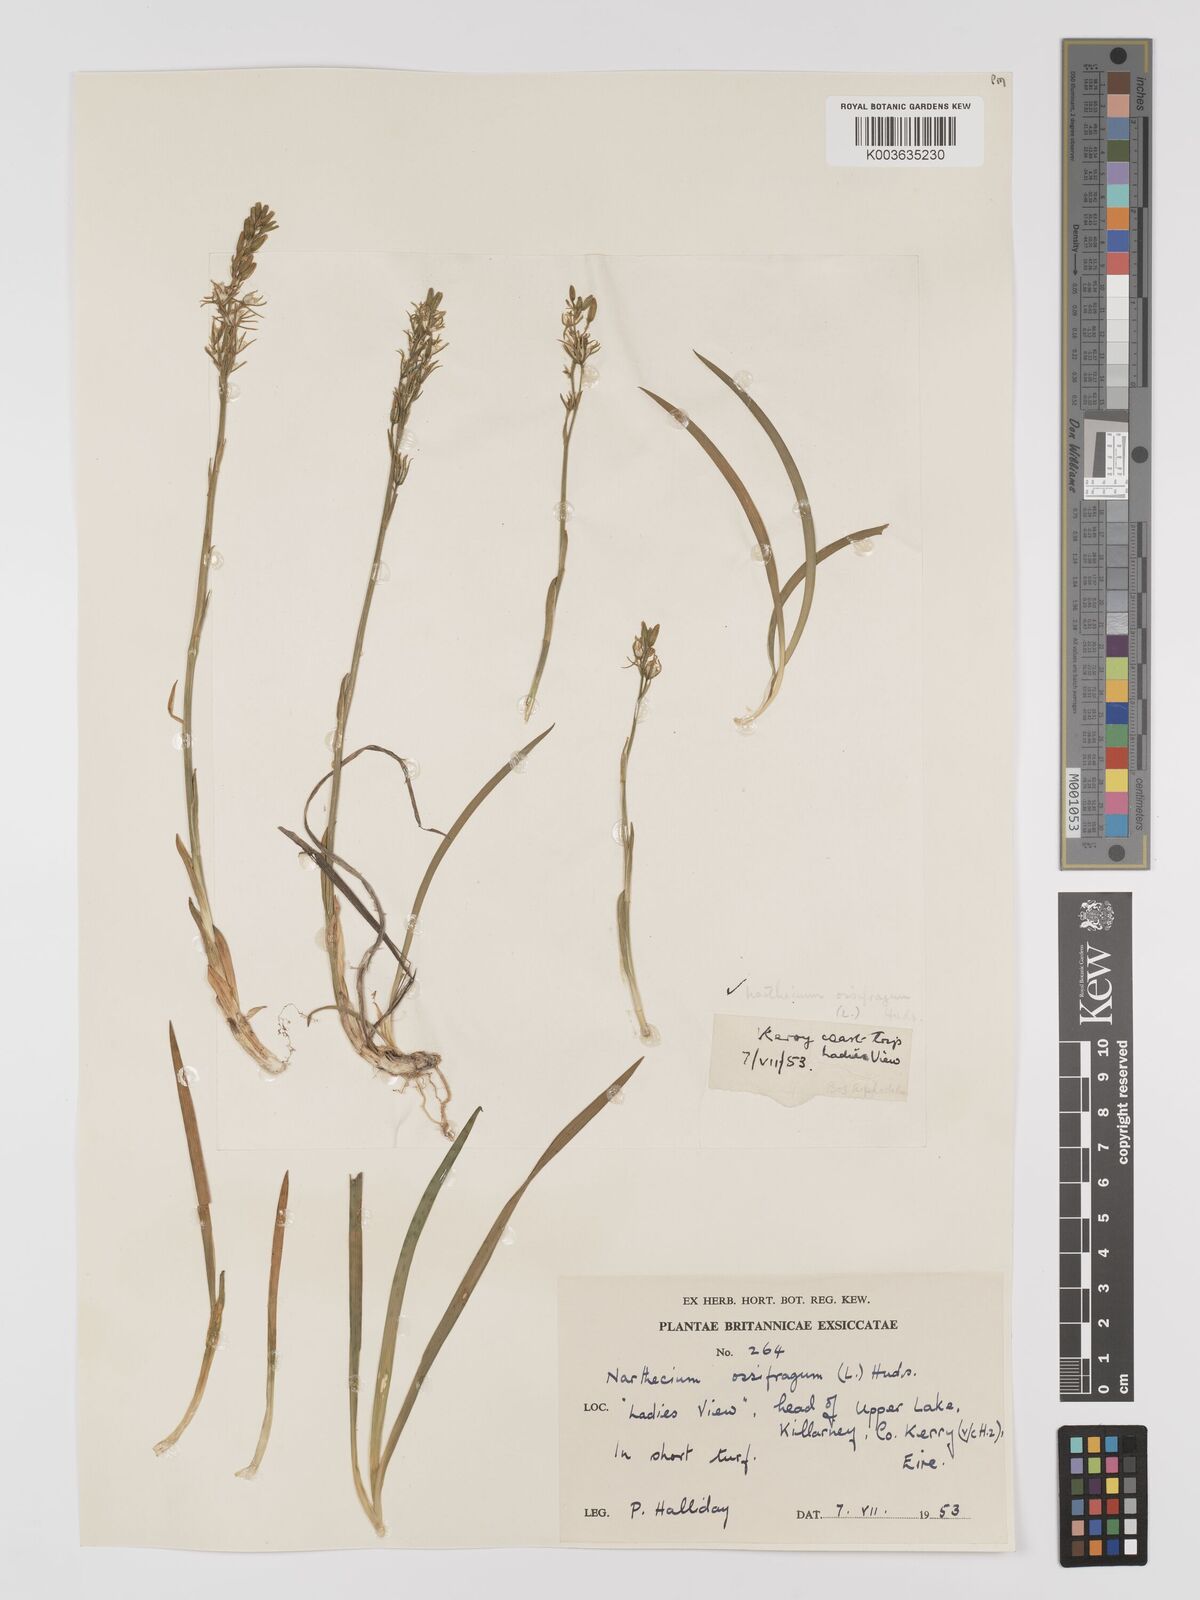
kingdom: Plantae
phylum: Tracheophyta
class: Liliopsida
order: Dioscoreales
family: Nartheciaceae
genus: Narthecium
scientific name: Narthecium ossifragum
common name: Bog asphodel
